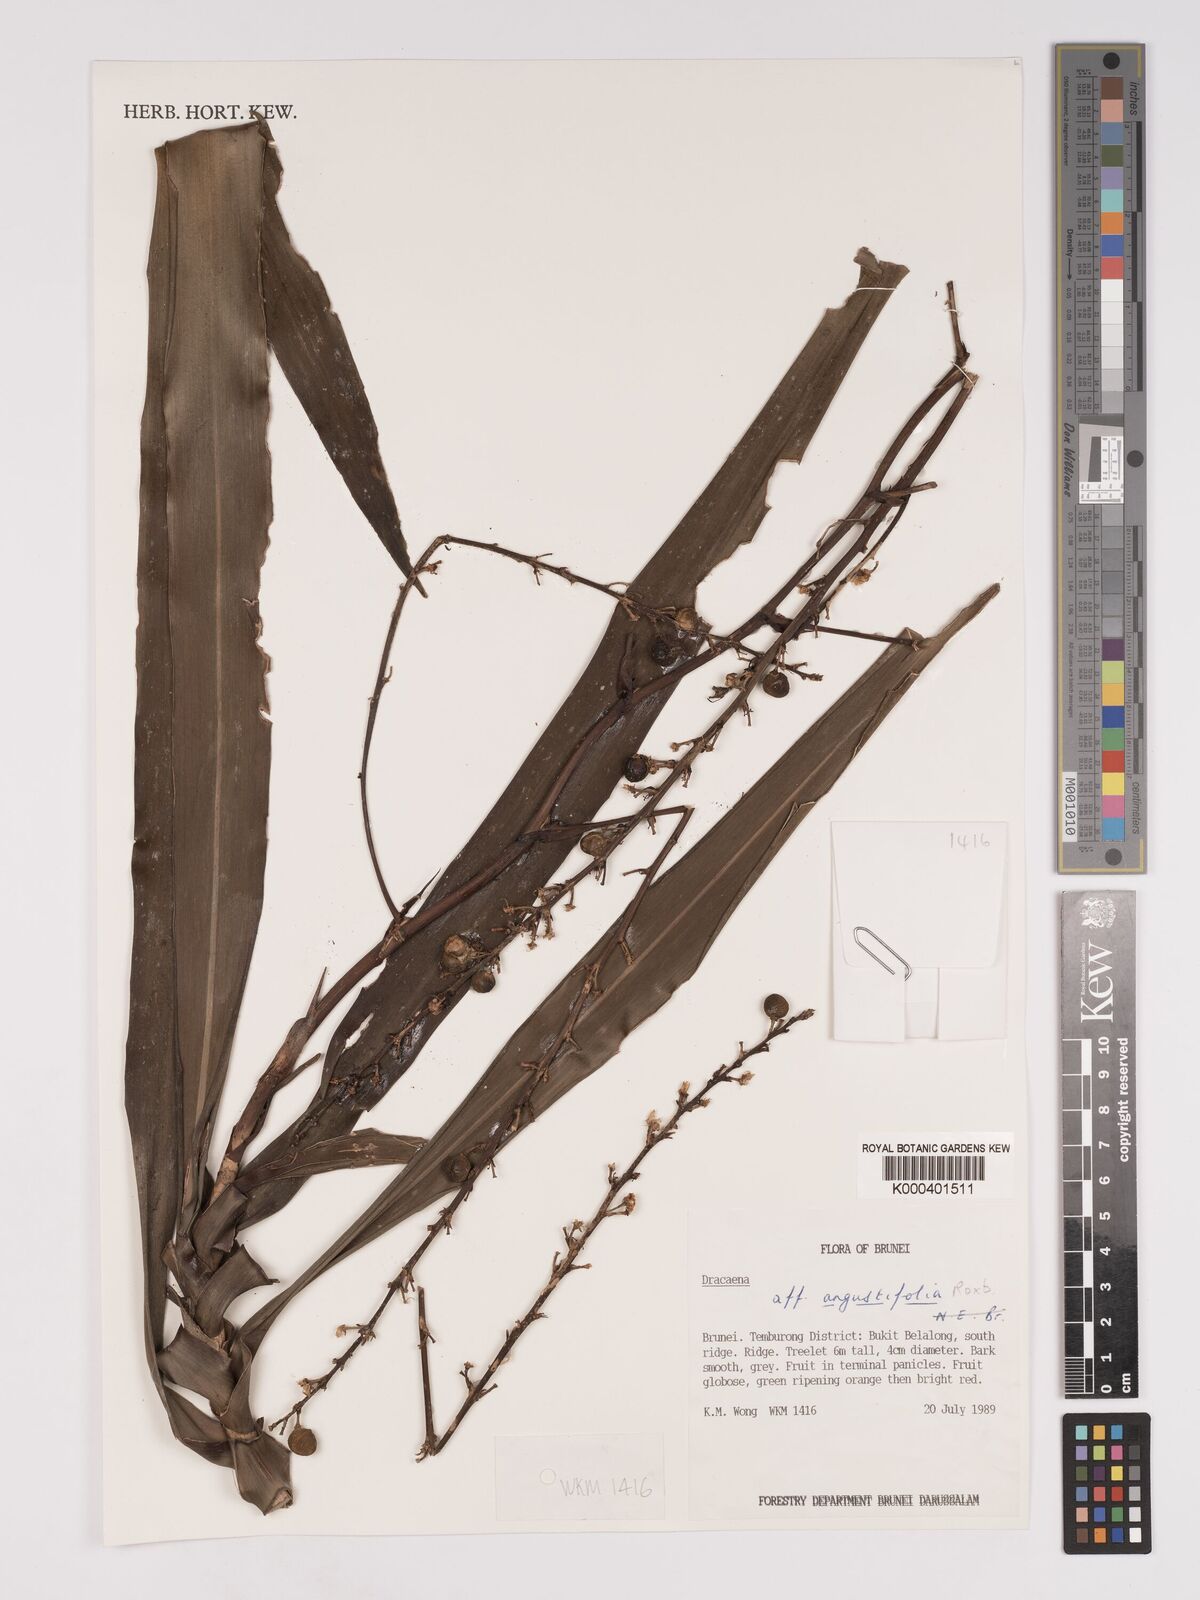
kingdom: Plantae
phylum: Tracheophyta
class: Liliopsida
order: Asparagales
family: Asparagaceae
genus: Dracaena
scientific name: Dracaena angustifolia
